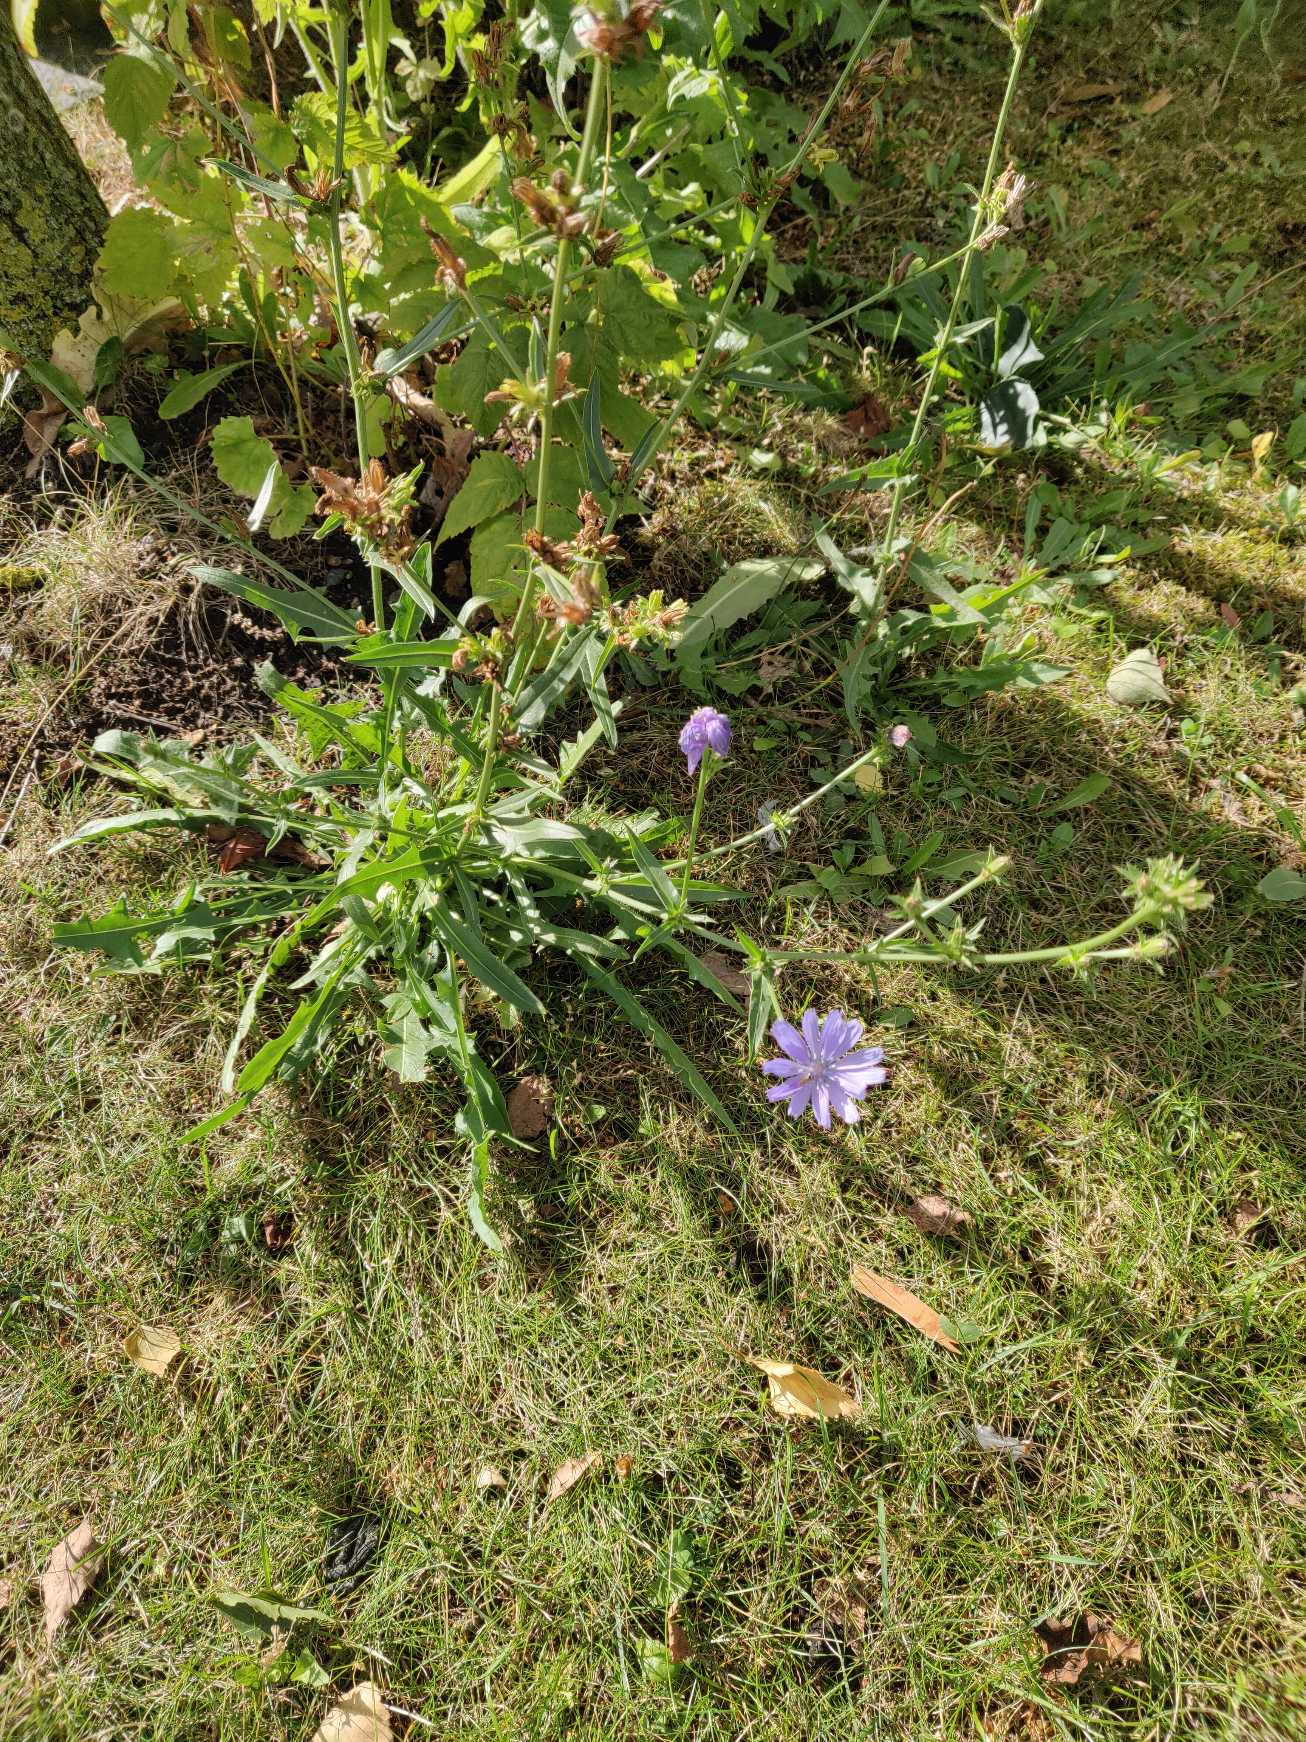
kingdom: Plantae
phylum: Tracheophyta
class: Magnoliopsida
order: Asterales
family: Asteraceae
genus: Cichorium
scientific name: Cichorium intybus
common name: Cikorie
